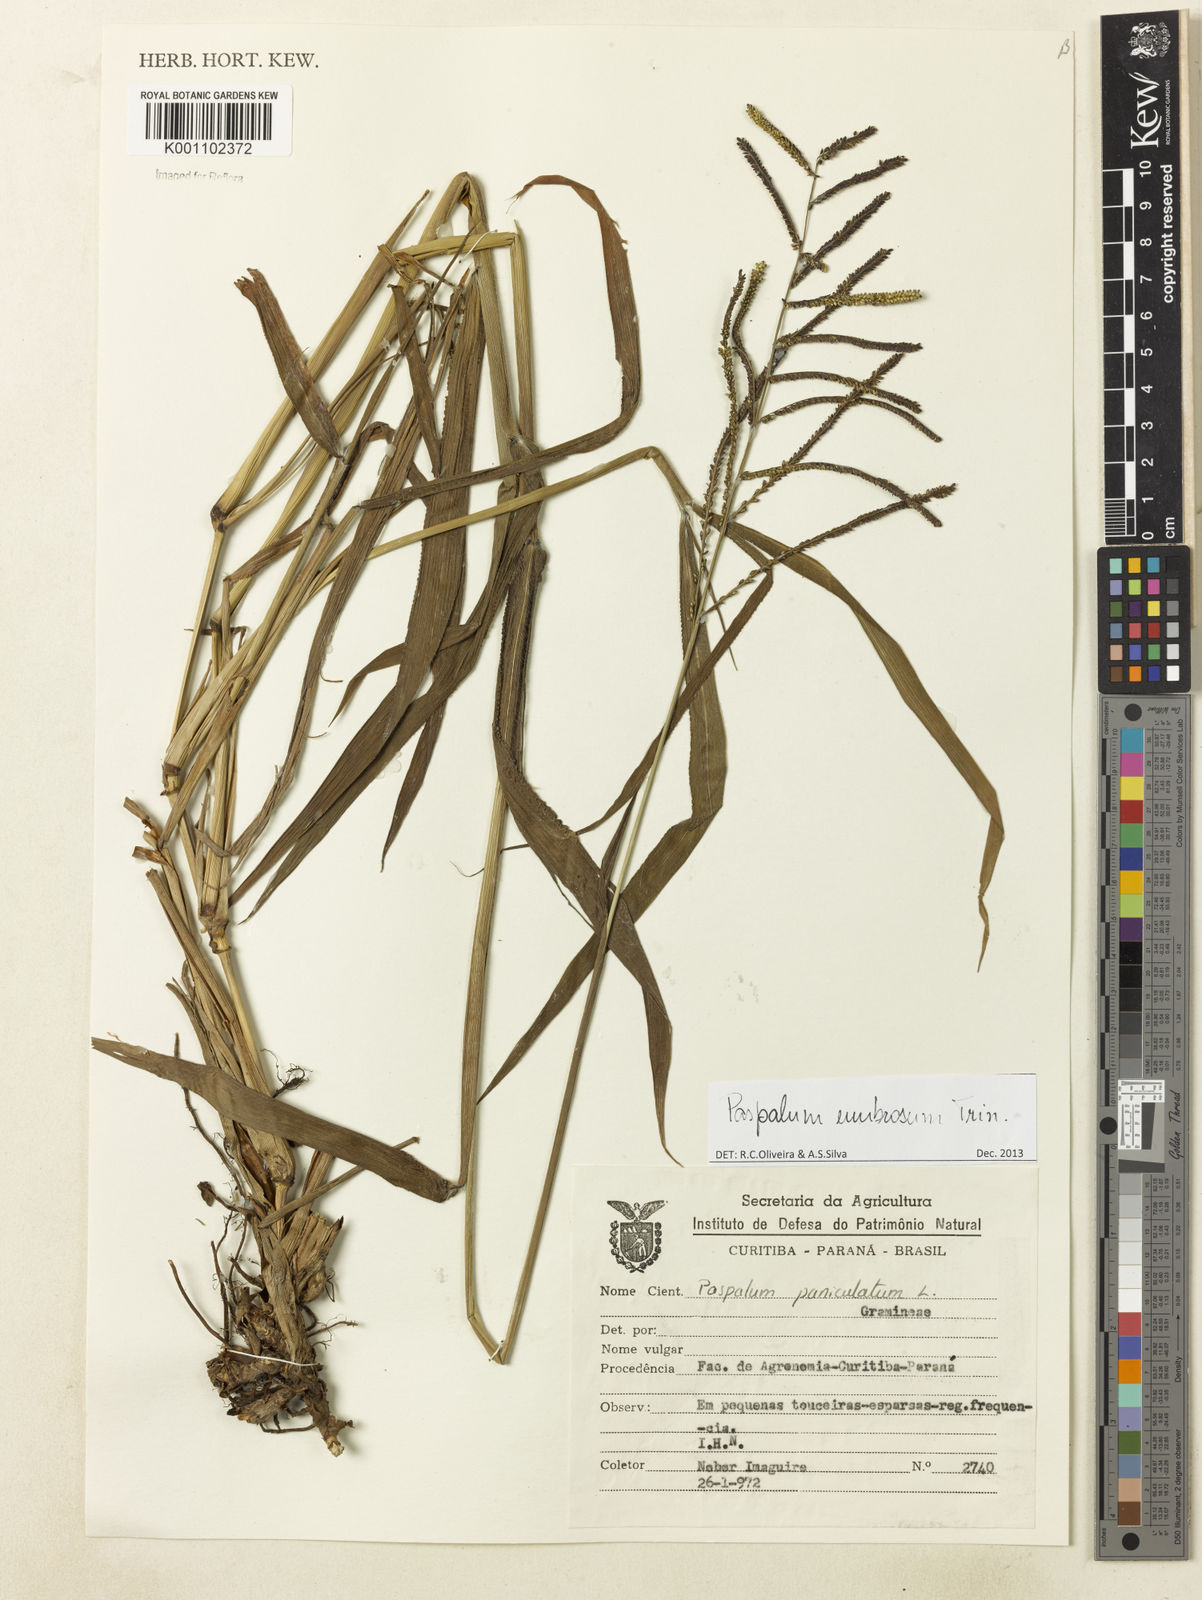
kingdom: Plantae
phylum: Tracheophyta
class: Liliopsida
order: Poales
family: Poaceae
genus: Paspalum
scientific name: Paspalum umbrosum
